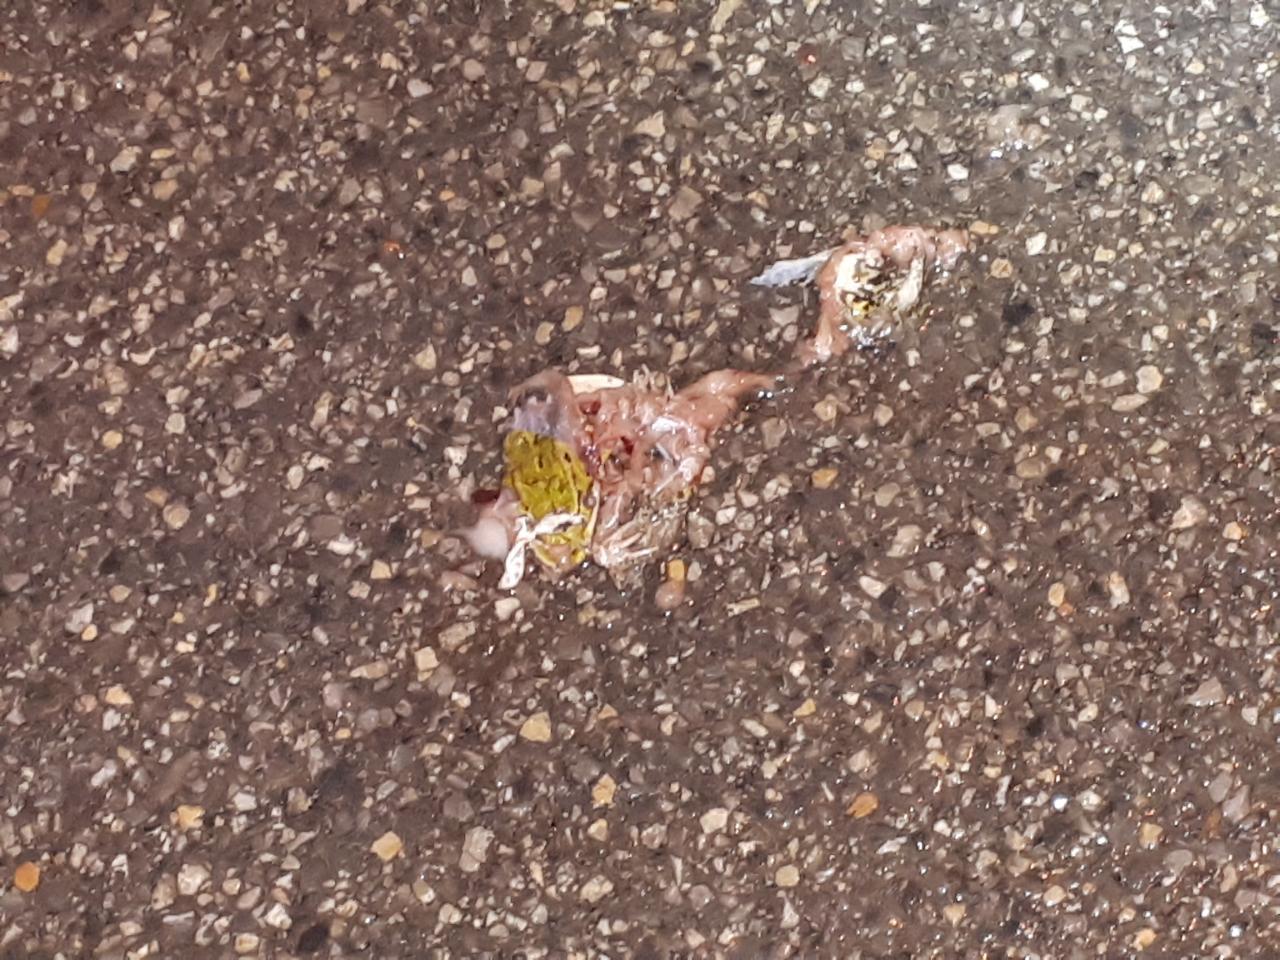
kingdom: Animalia
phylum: Chordata
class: Amphibia
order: Anura
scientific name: Anura
